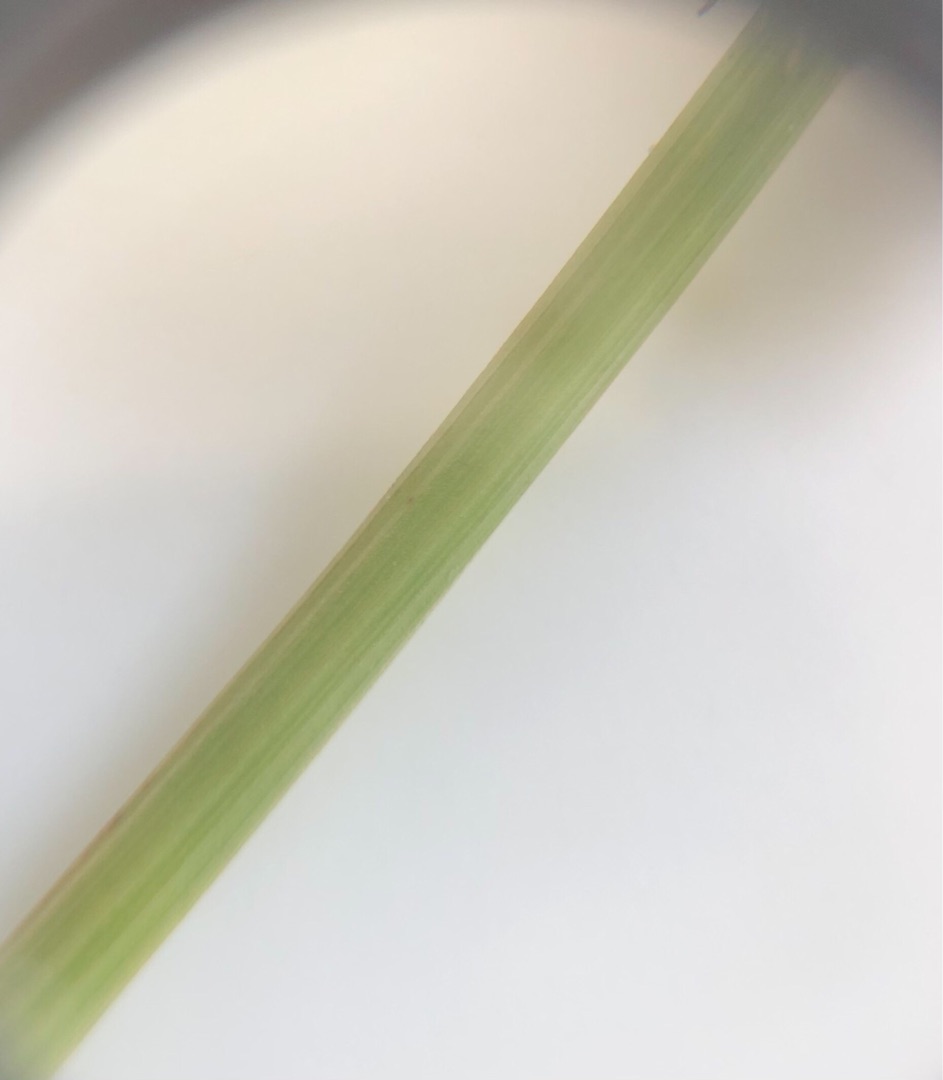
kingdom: Plantae
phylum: Tracheophyta
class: Liliopsida
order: Poales
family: Juncaceae
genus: Juncus
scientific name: Juncus conglomeratus
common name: Knop-siv
